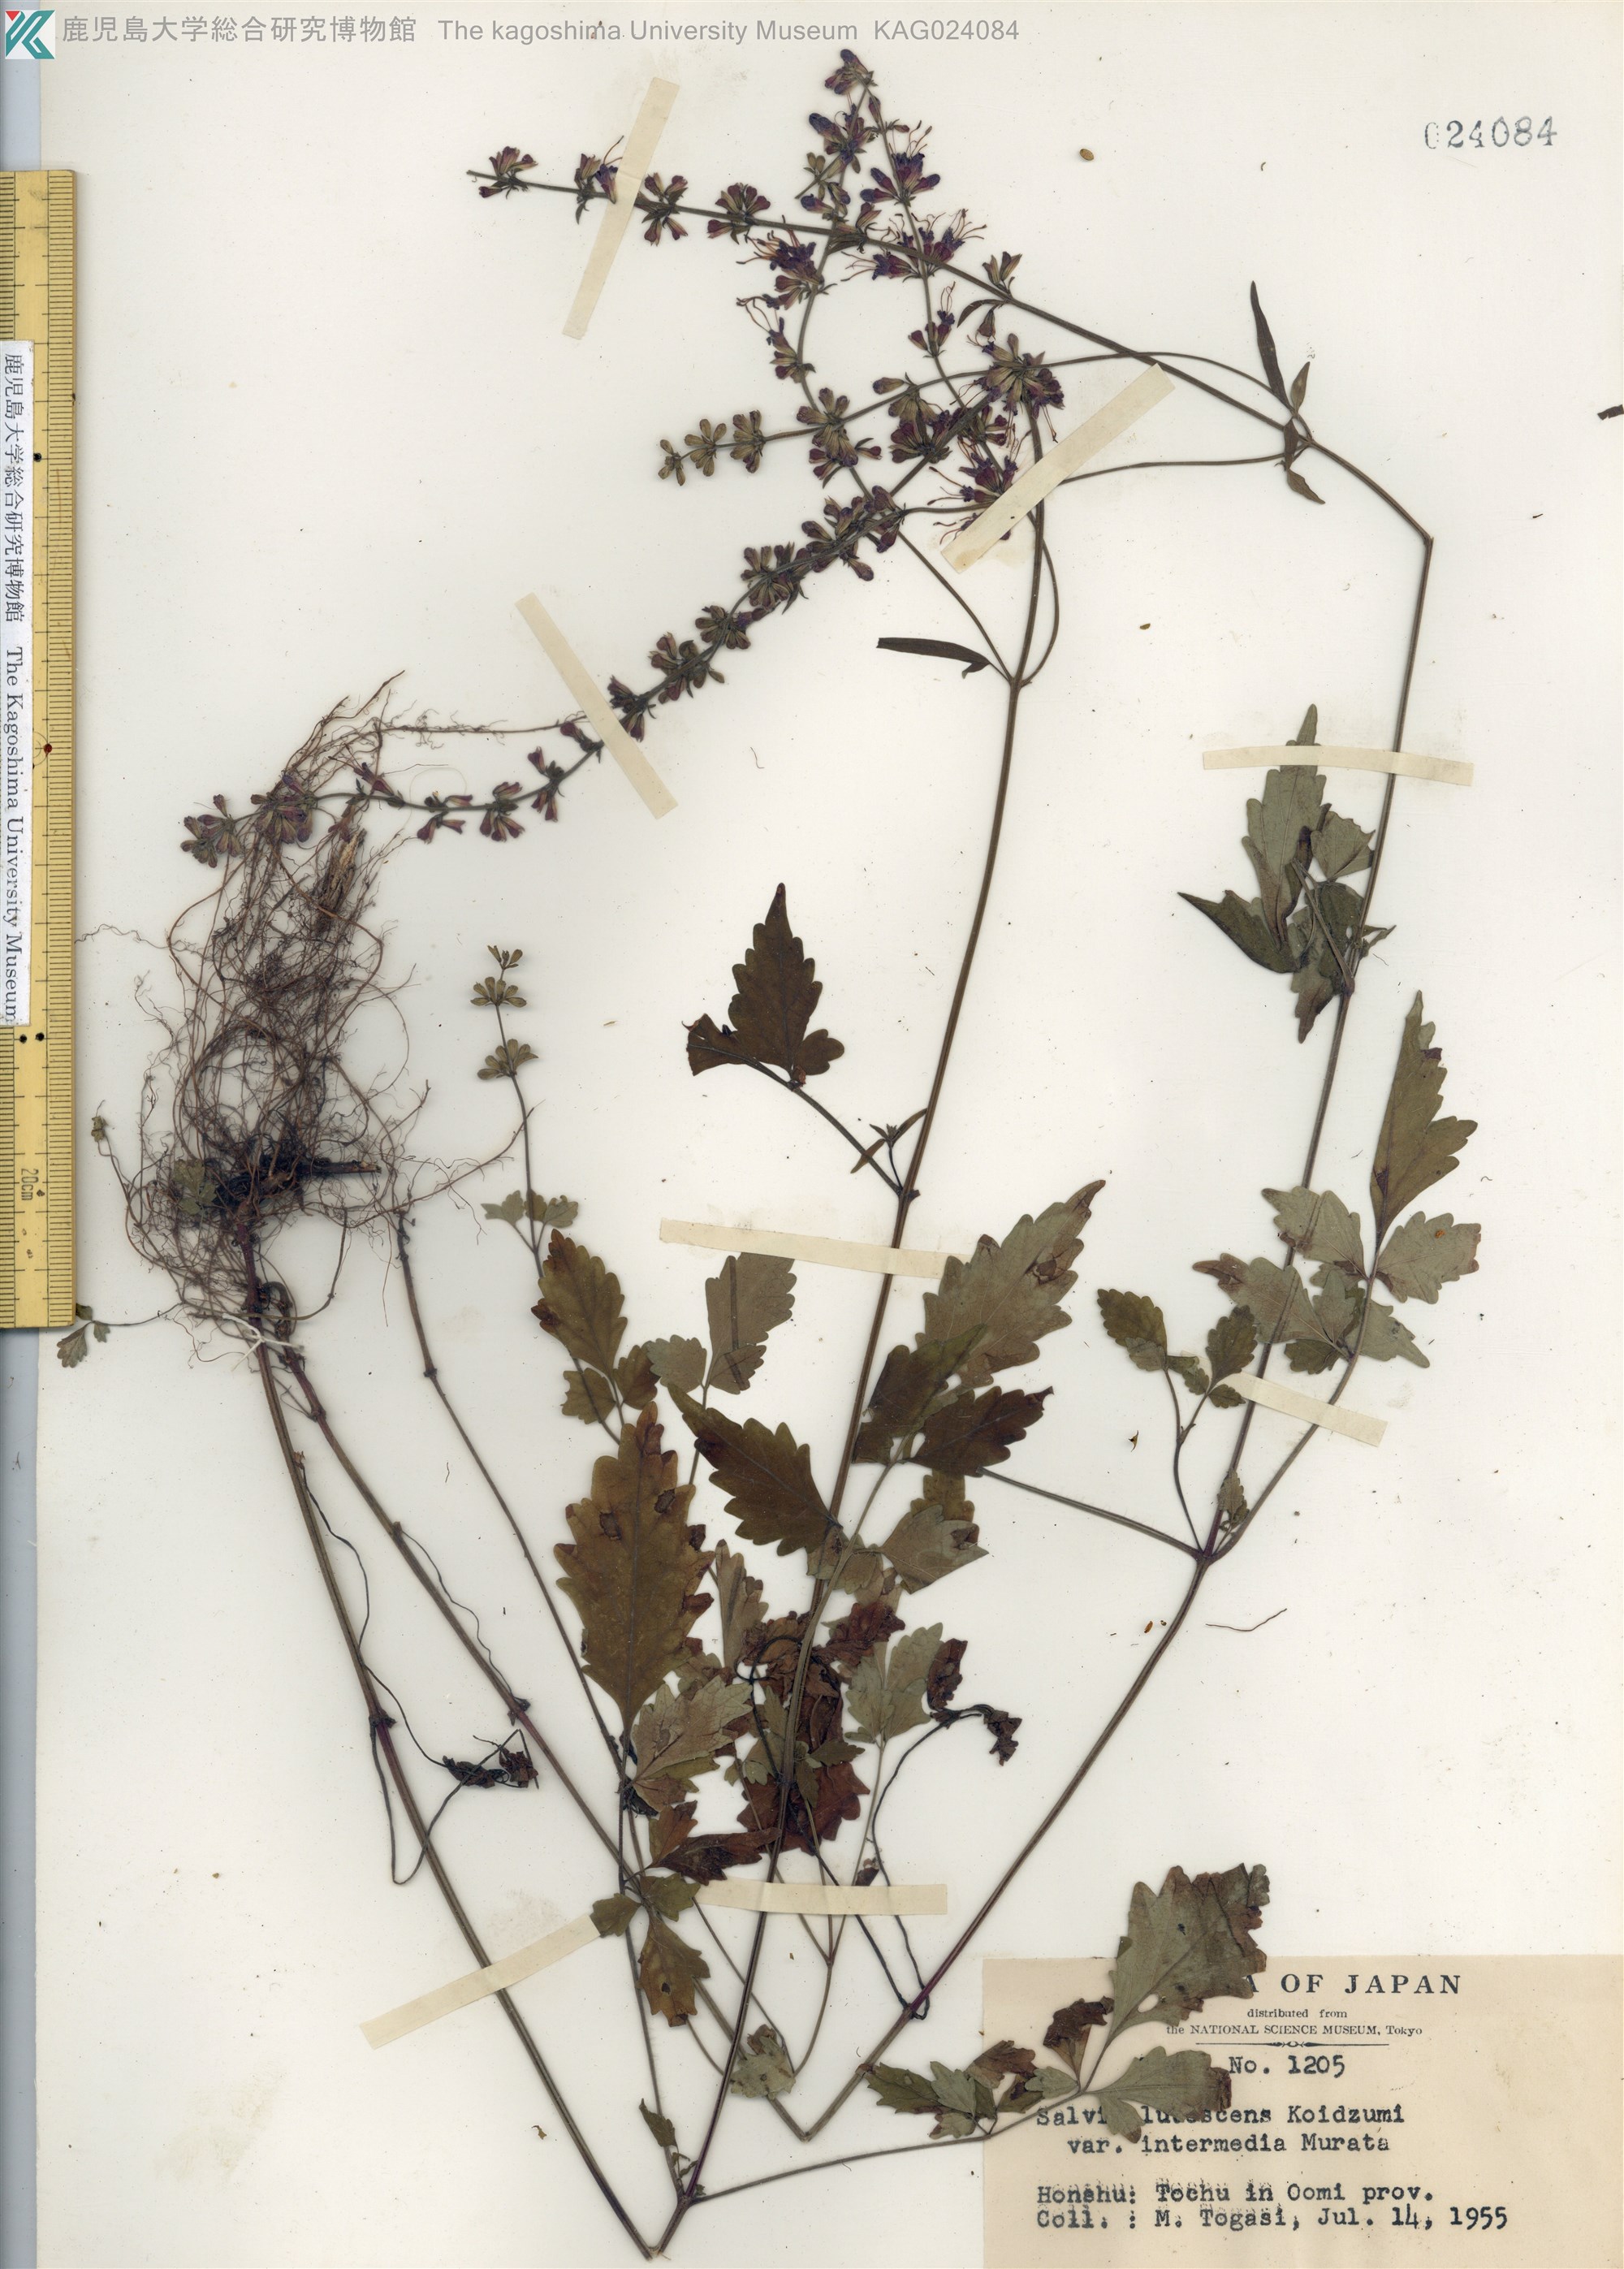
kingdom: Plantae
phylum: Tracheophyta
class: Magnoliopsida
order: Lamiales
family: Lamiaceae
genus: Salvia
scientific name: Salvia lutescens
